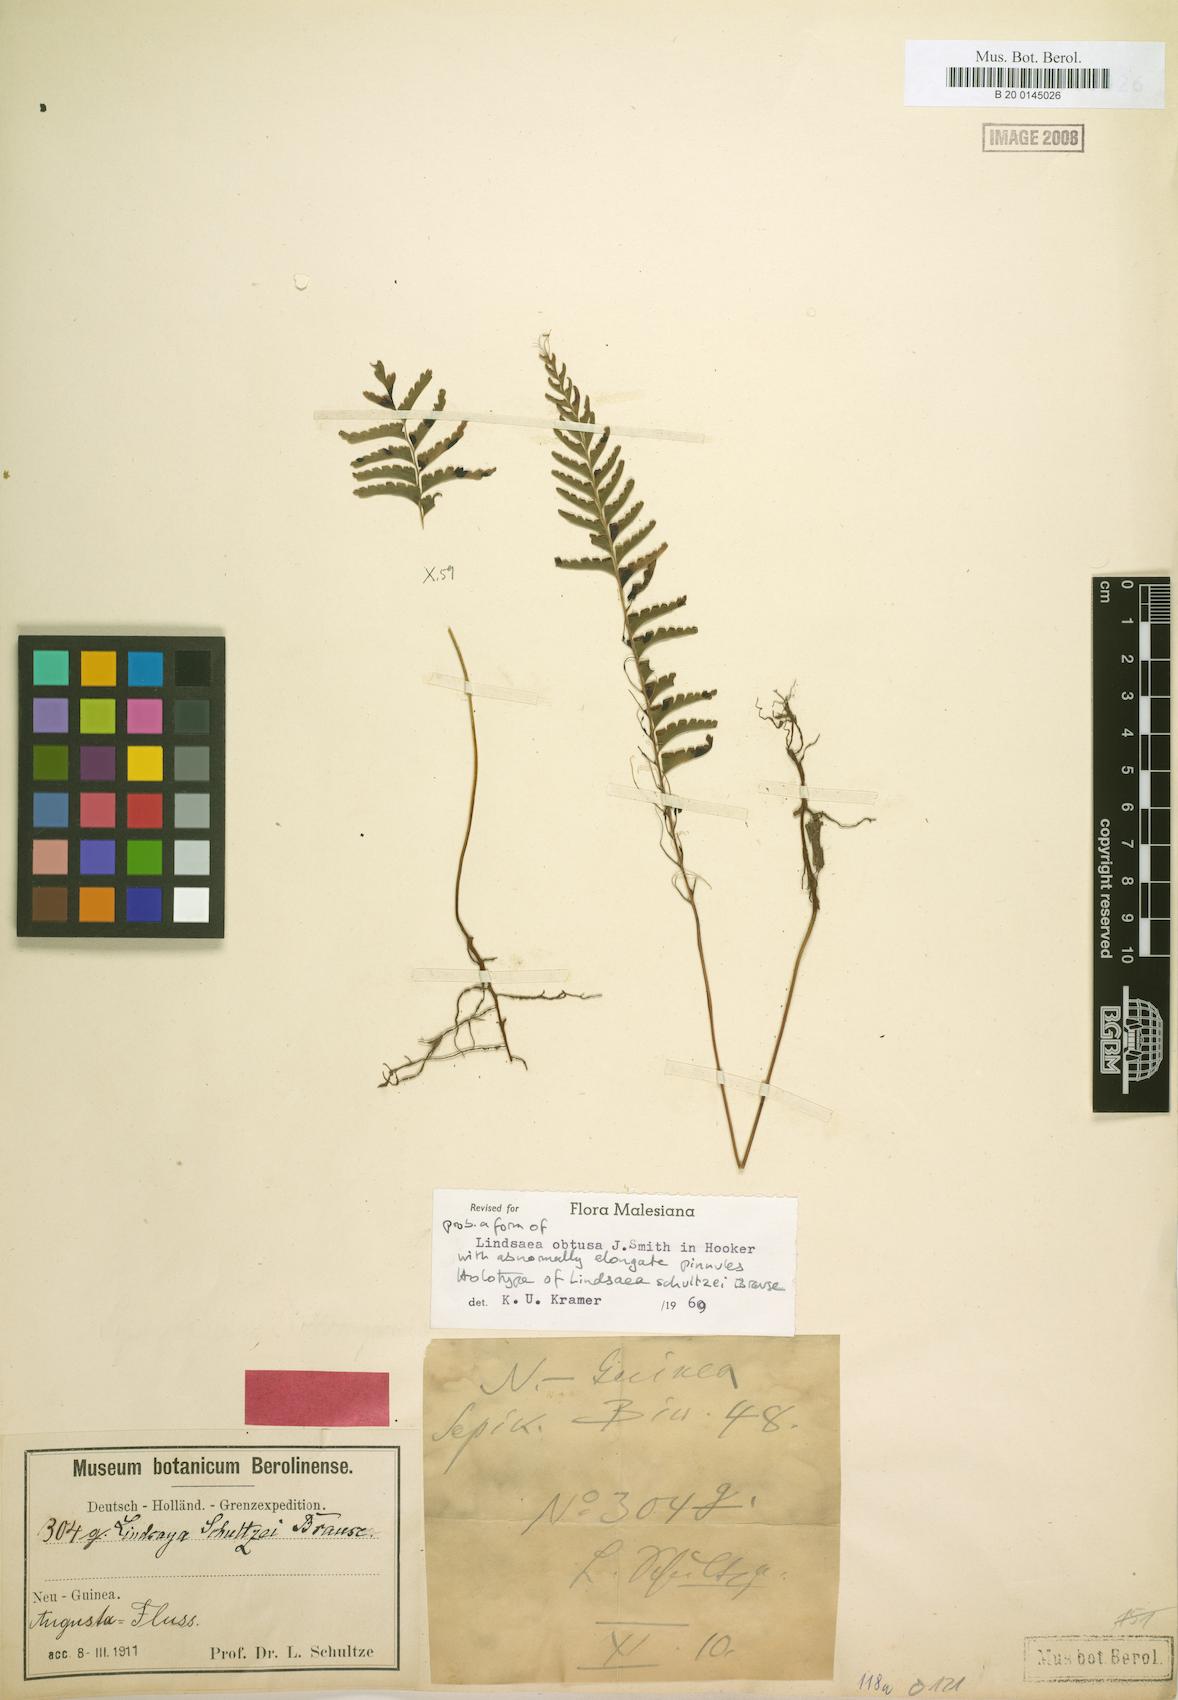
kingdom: Plantae
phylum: Tracheophyta
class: Polypodiopsida
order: Polypodiales
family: Lindsaeaceae
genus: Lindsaea
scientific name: Lindsaea cultrata
